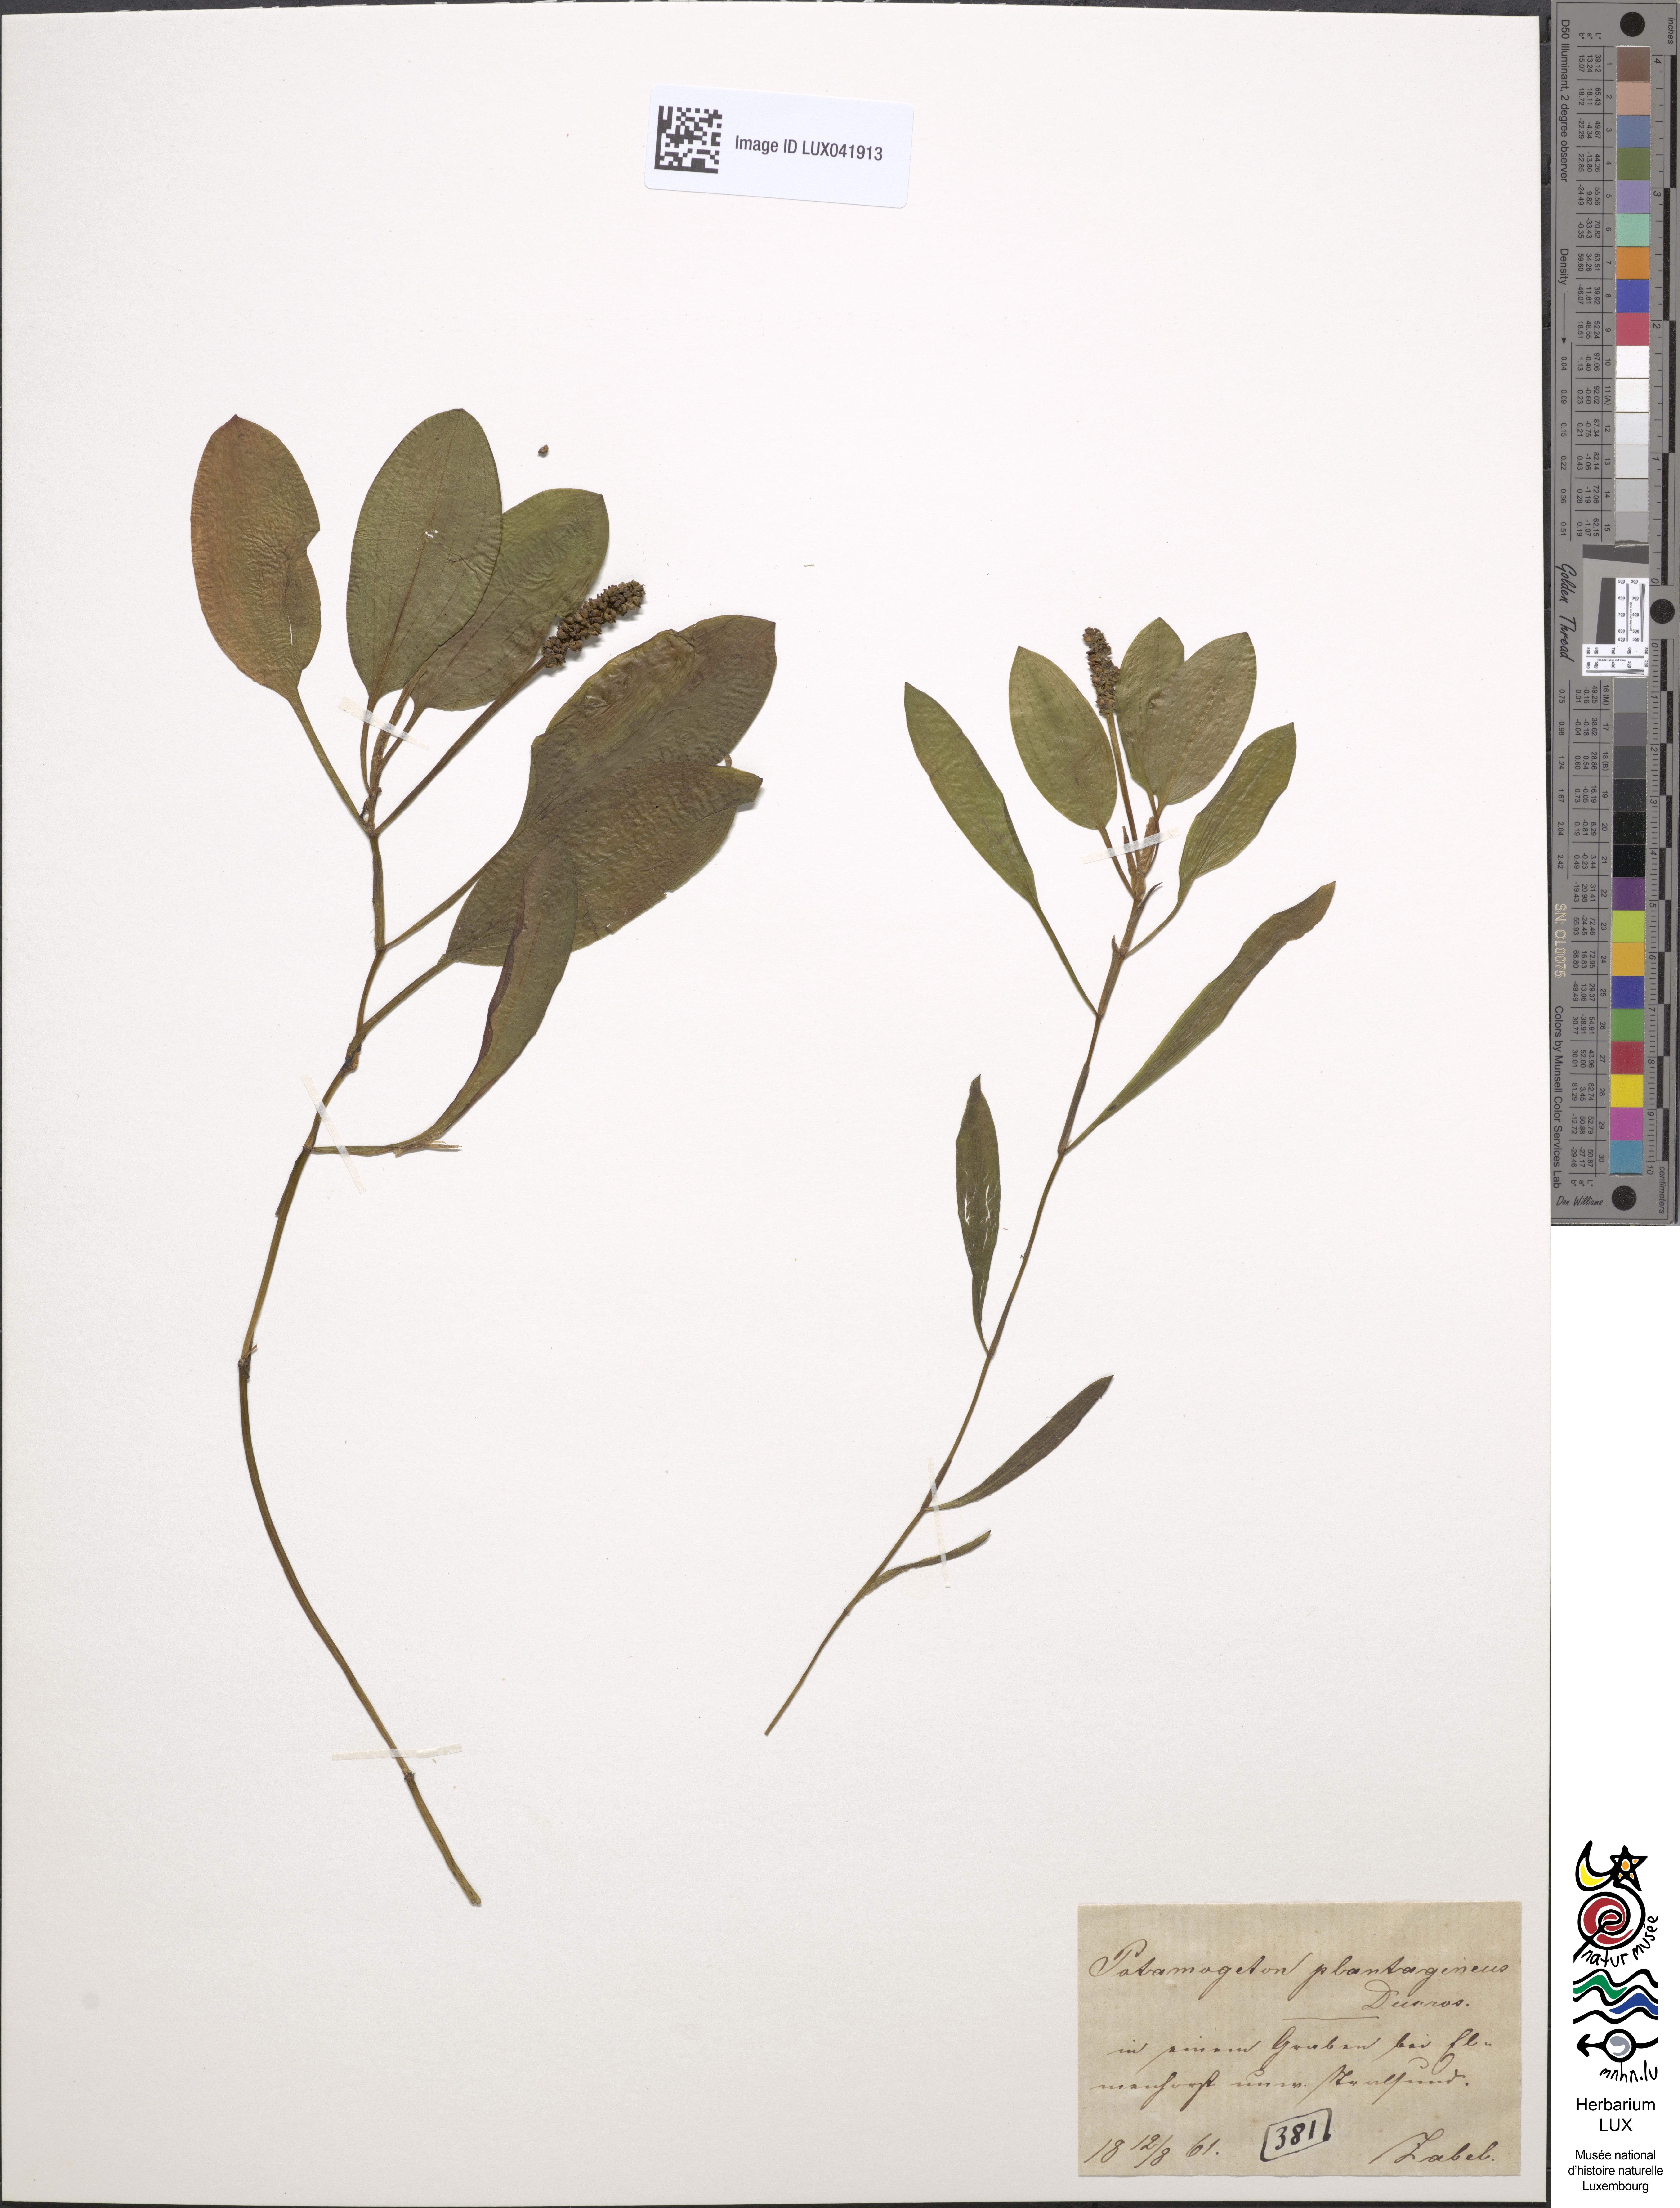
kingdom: Plantae
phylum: Tracheophyta
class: Liliopsida
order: Alismatales
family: Potamogetonaceae
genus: Potamogeton
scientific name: Potamogeton coloratus
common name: Fen pondweed
